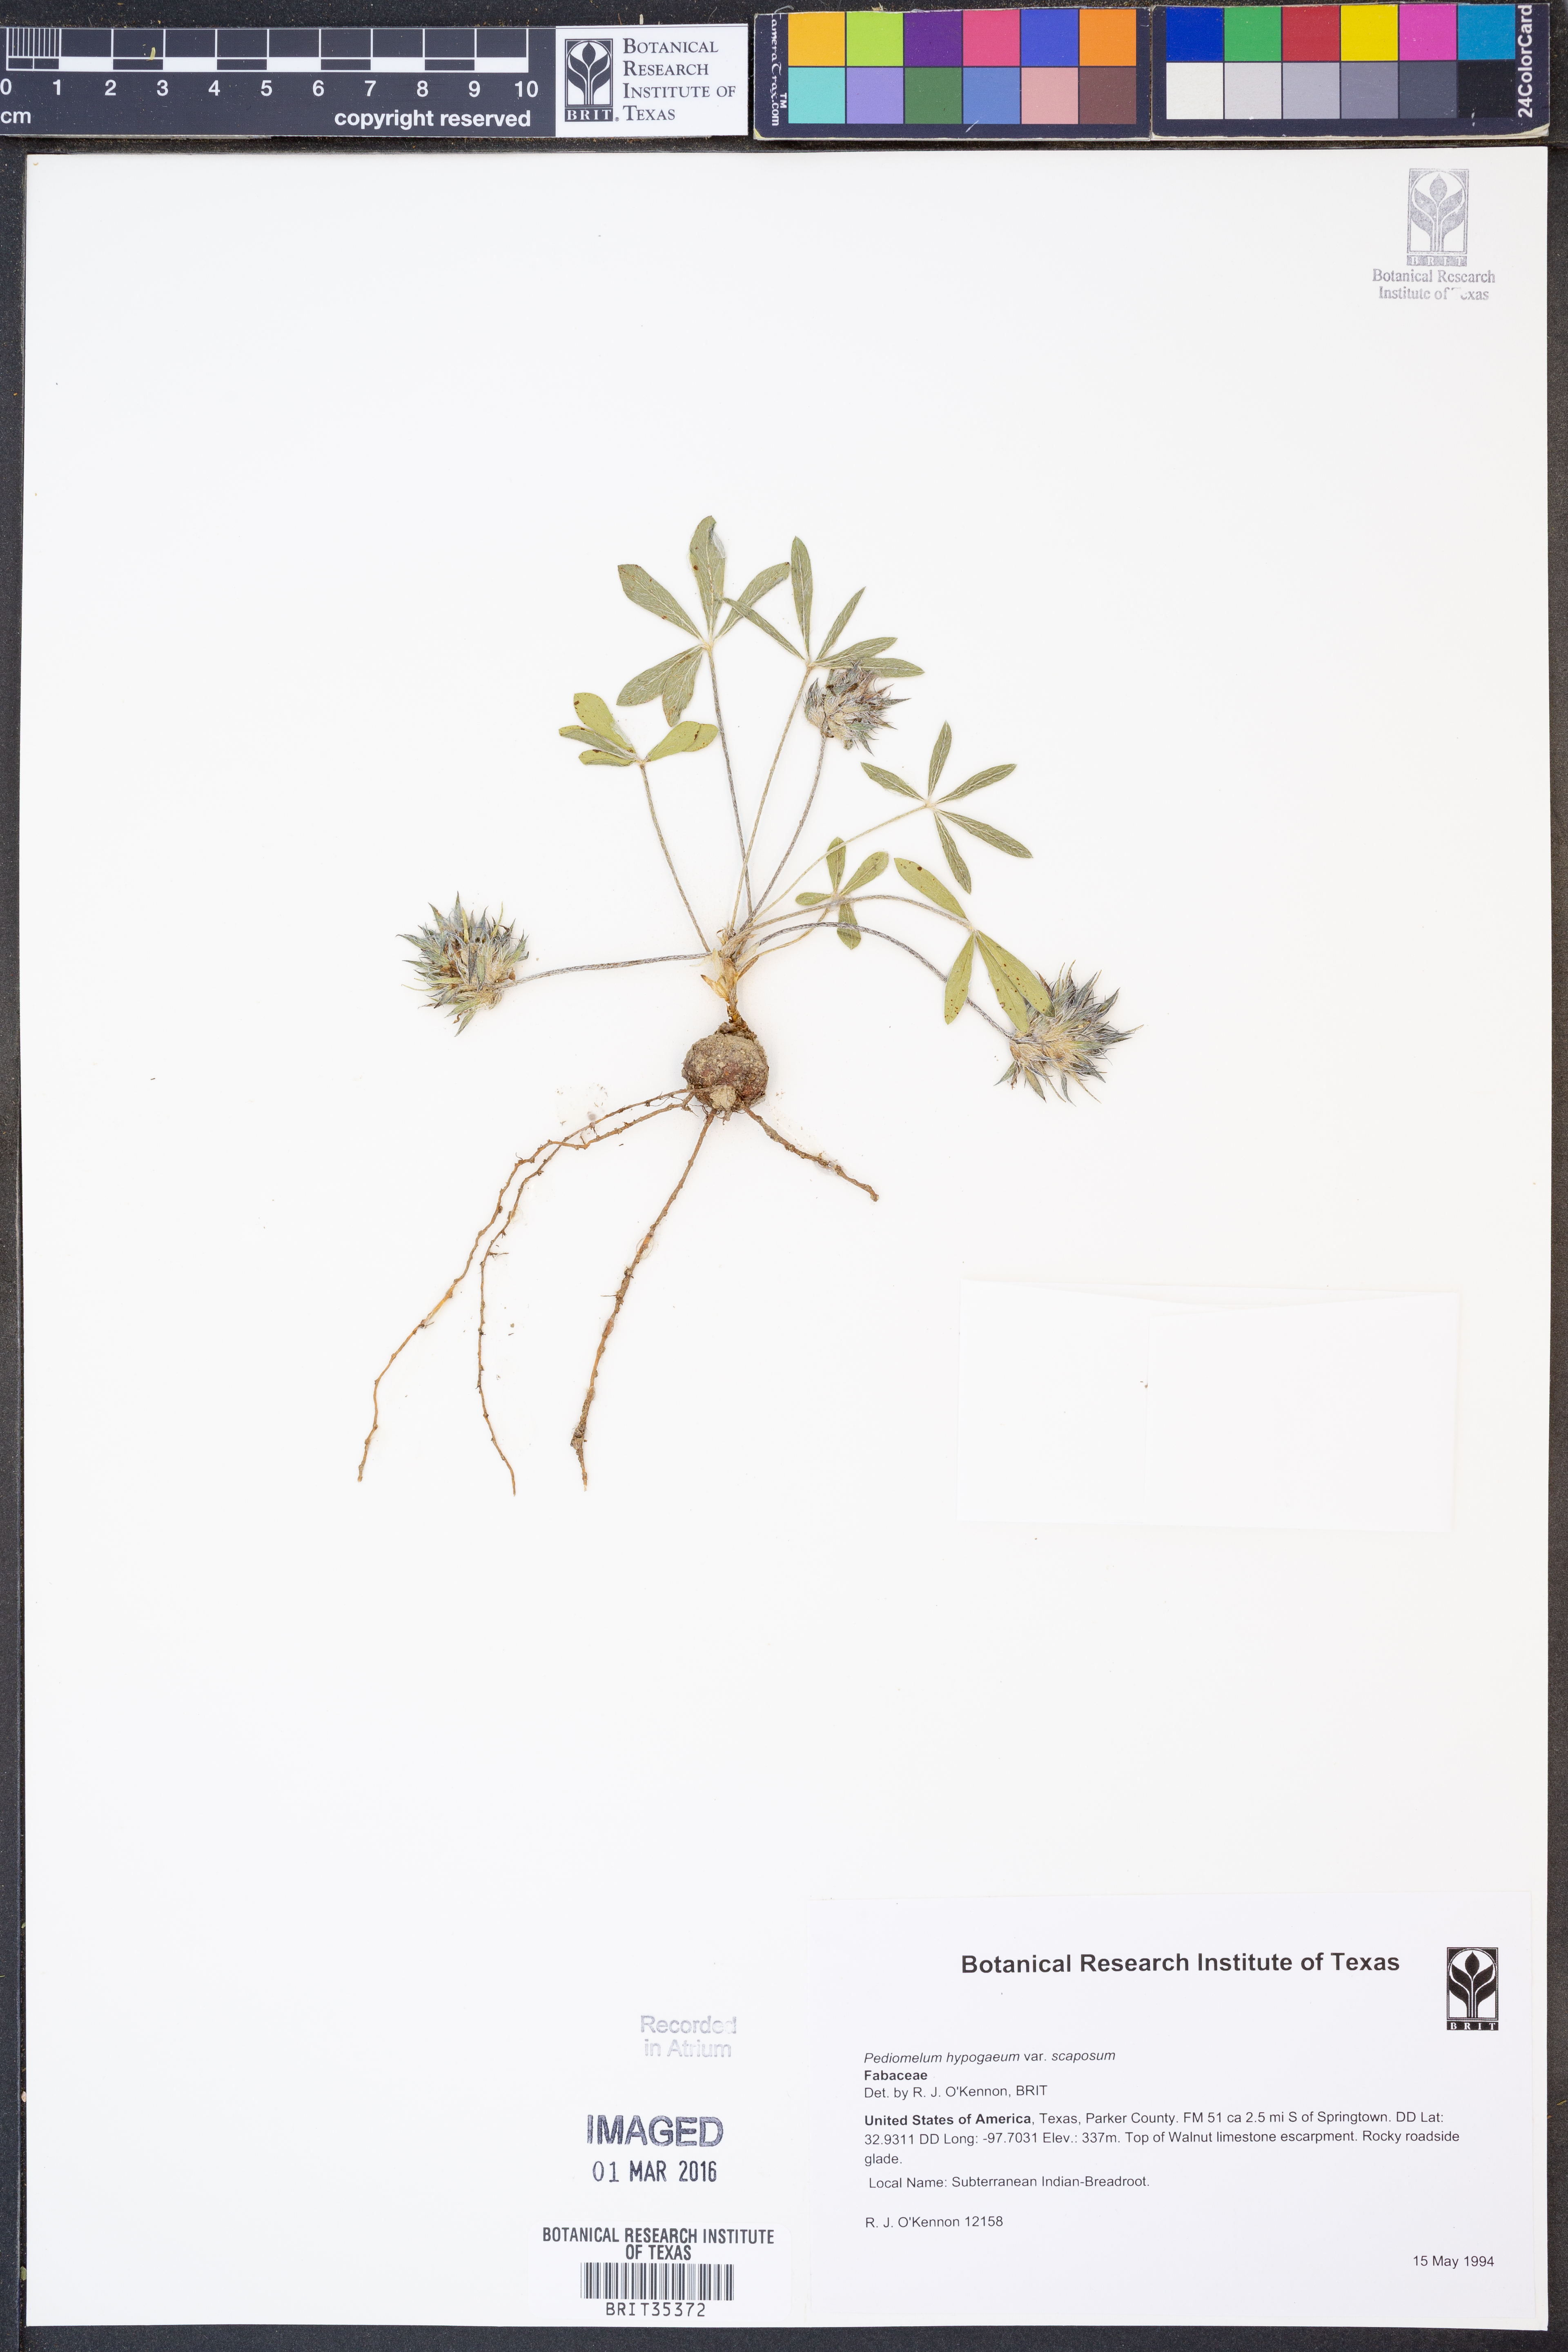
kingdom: Plantae
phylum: Tracheophyta
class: Magnoliopsida
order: Fabales
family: Fabaceae
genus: Pediomelum
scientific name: Pediomelum hypogaeum
